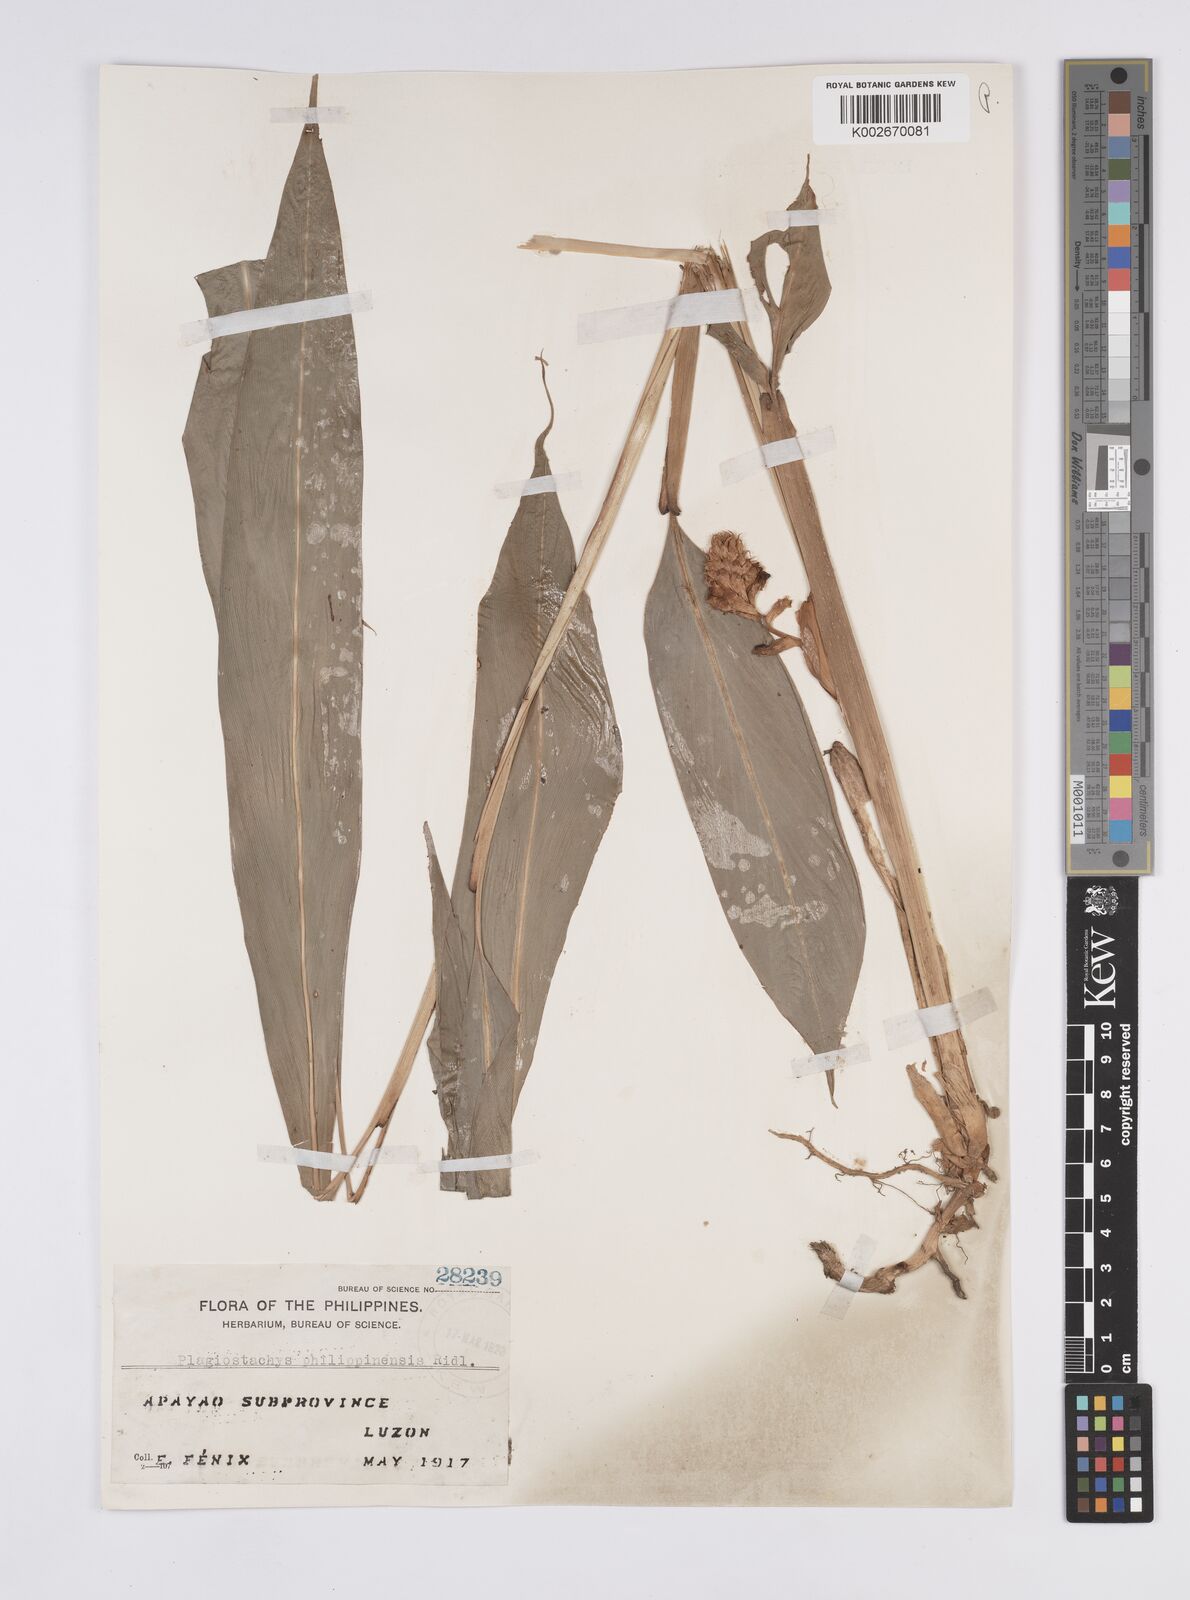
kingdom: Plantae
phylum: Tracheophyta
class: Liliopsida
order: Zingiberales
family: Zingiberaceae
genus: Plagiostachys
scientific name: Plagiostachys philippinensis
